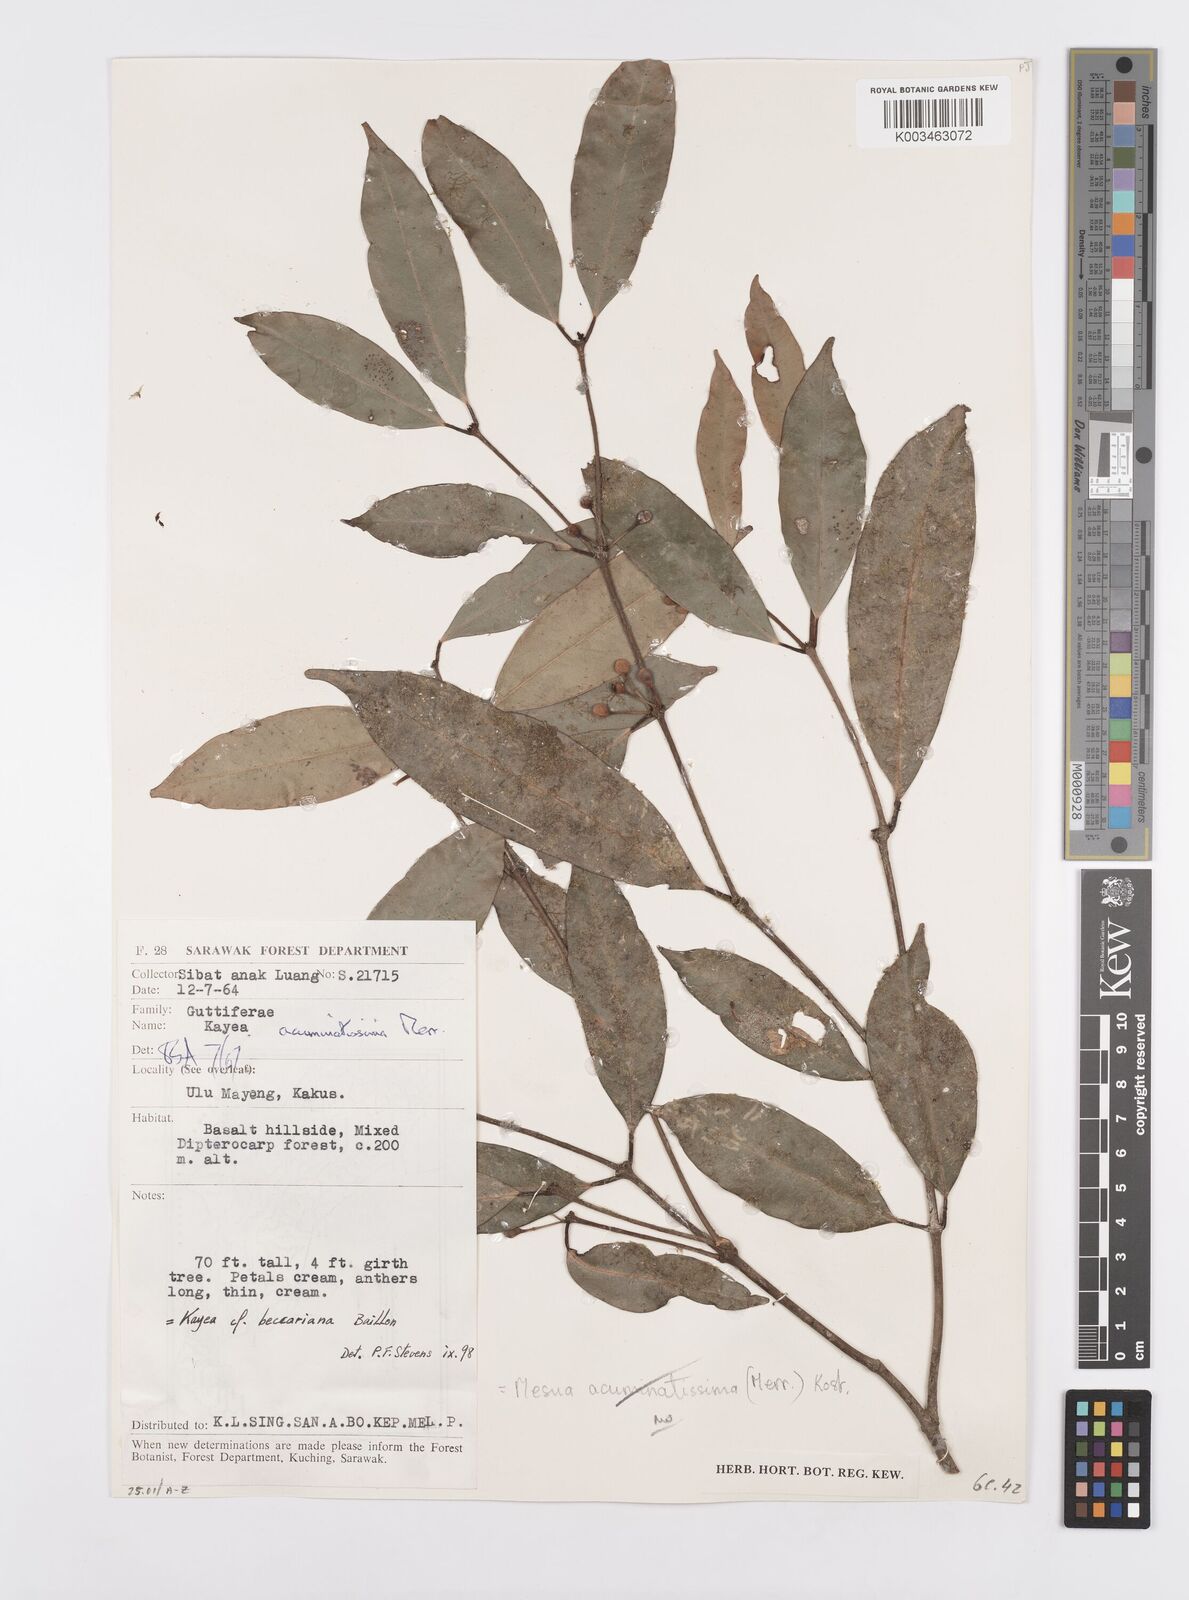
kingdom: Plantae
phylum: Tracheophyta
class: Magnoliopsida
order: Malpighiales
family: Calophyllaceae
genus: Kayea
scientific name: Kayea beccariana
